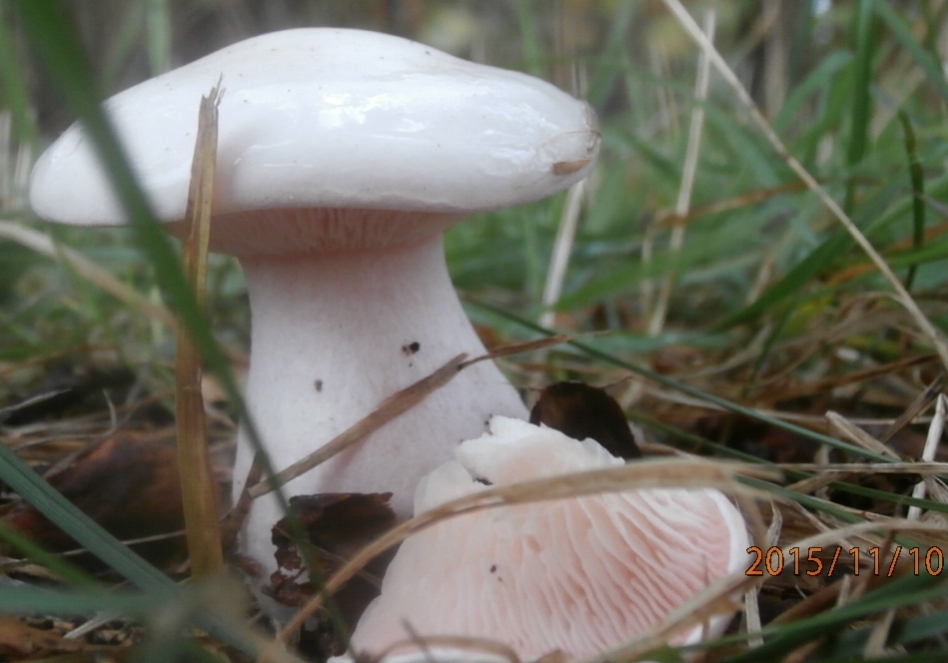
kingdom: Fungi
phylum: Basidiomycota
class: Agaricomycetes
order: Agaricales
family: Tricholomataceae
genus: Pseudoclitopilus
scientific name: Pseudoclitopilus rhodoleucus
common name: rosabladet tragtridderhat
